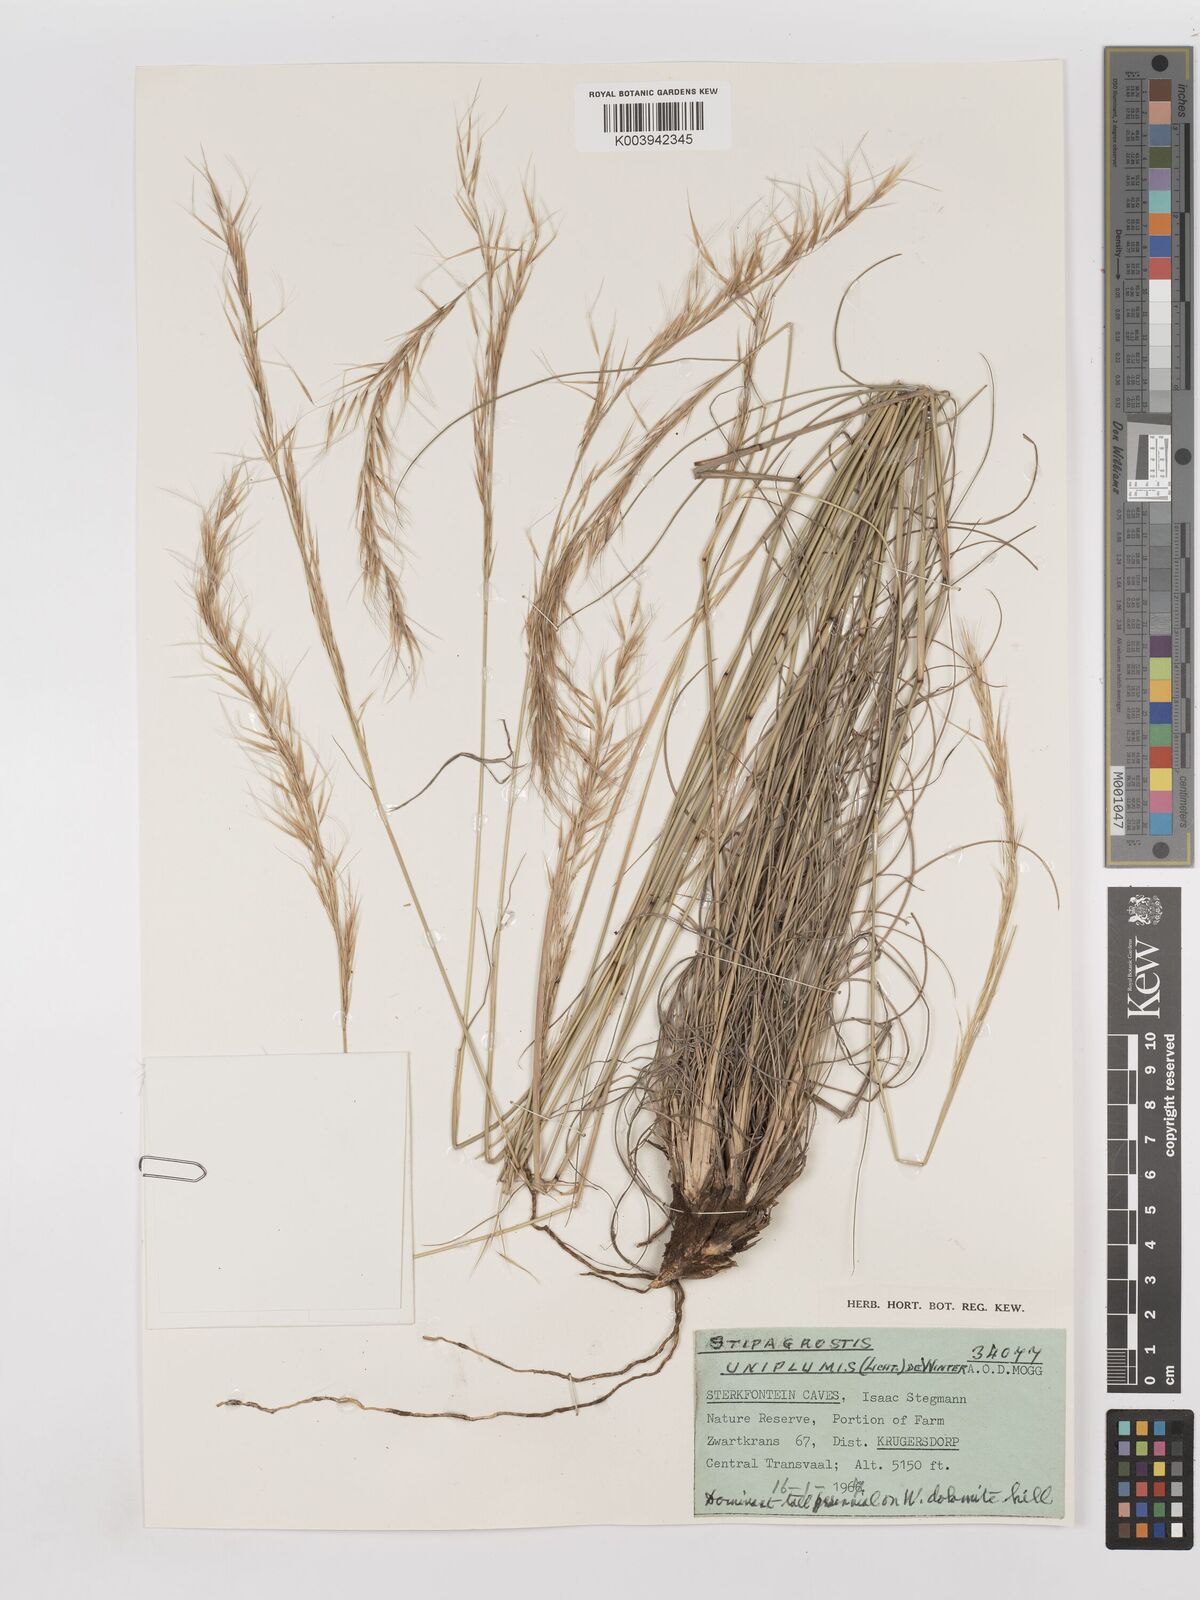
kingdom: Plantae
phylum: Tracheophyta
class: Liliopsida
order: Poales
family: Poaceae
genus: Stipagrostis
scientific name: Stipagrostis uniplumis
